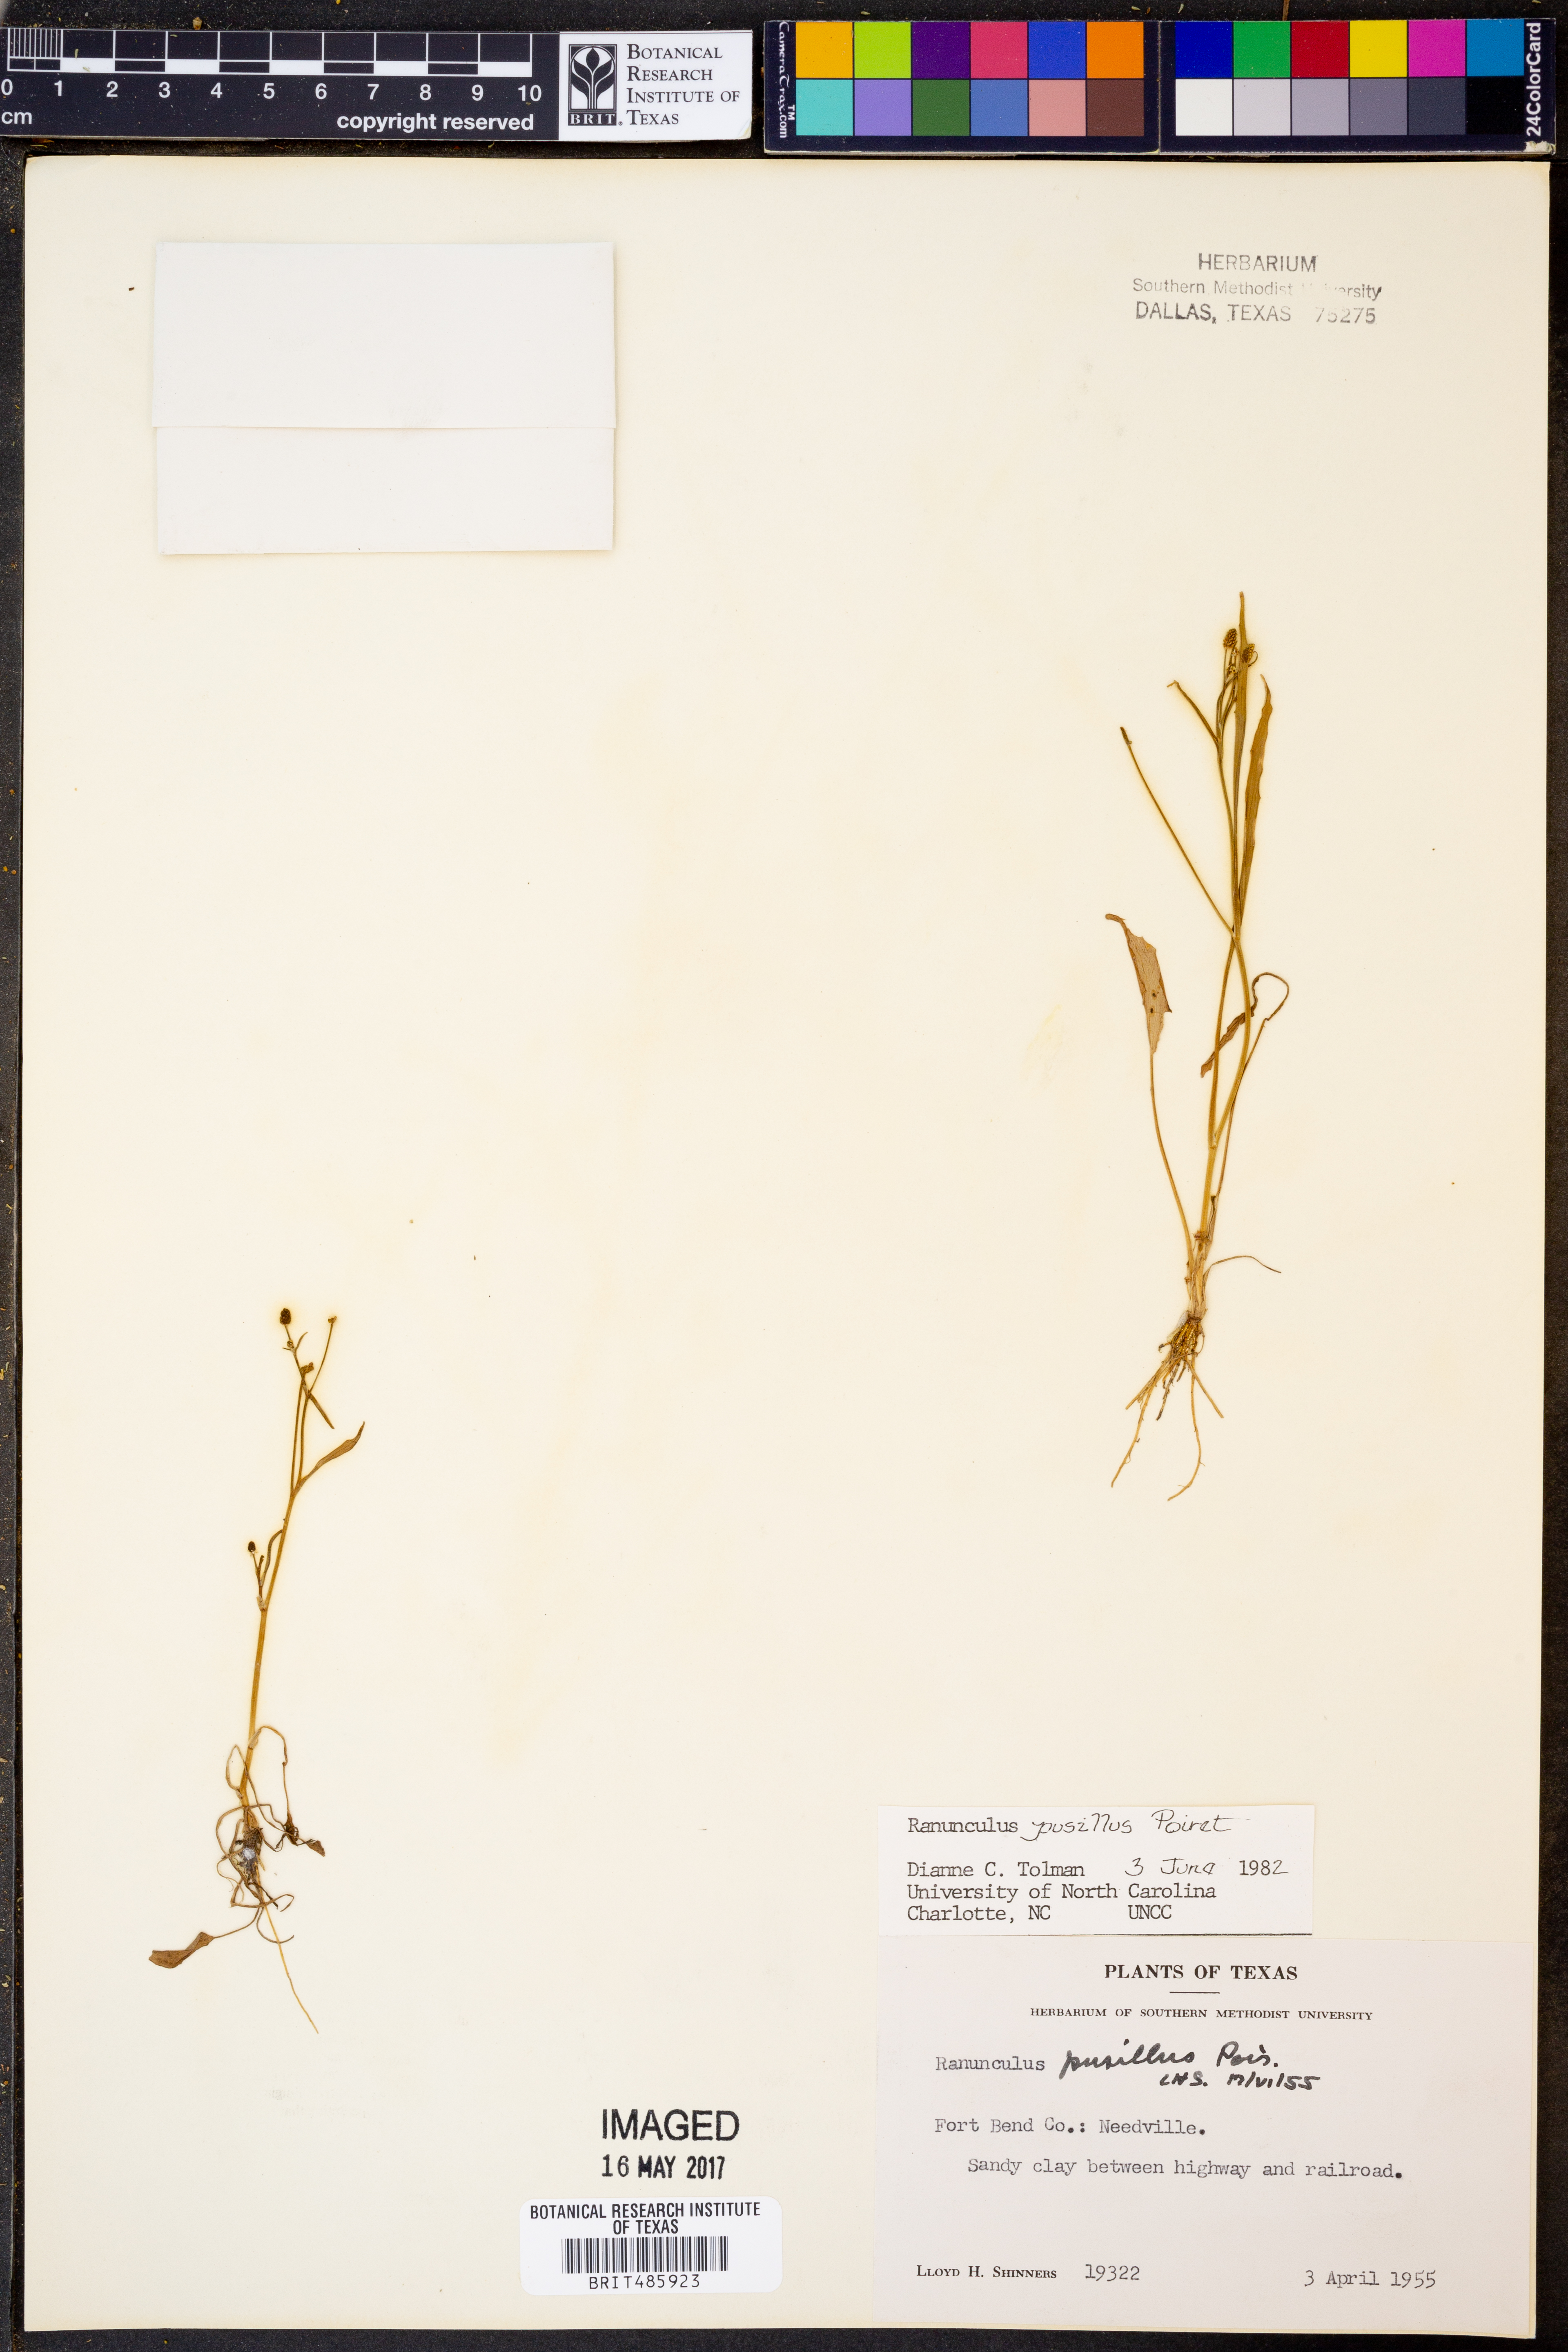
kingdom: Plantae
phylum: Tracheophyta
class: Magnoliopsida
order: Ranunculales
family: Ranunculaceae
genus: Ranunculus
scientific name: Ranunculus pusillus
